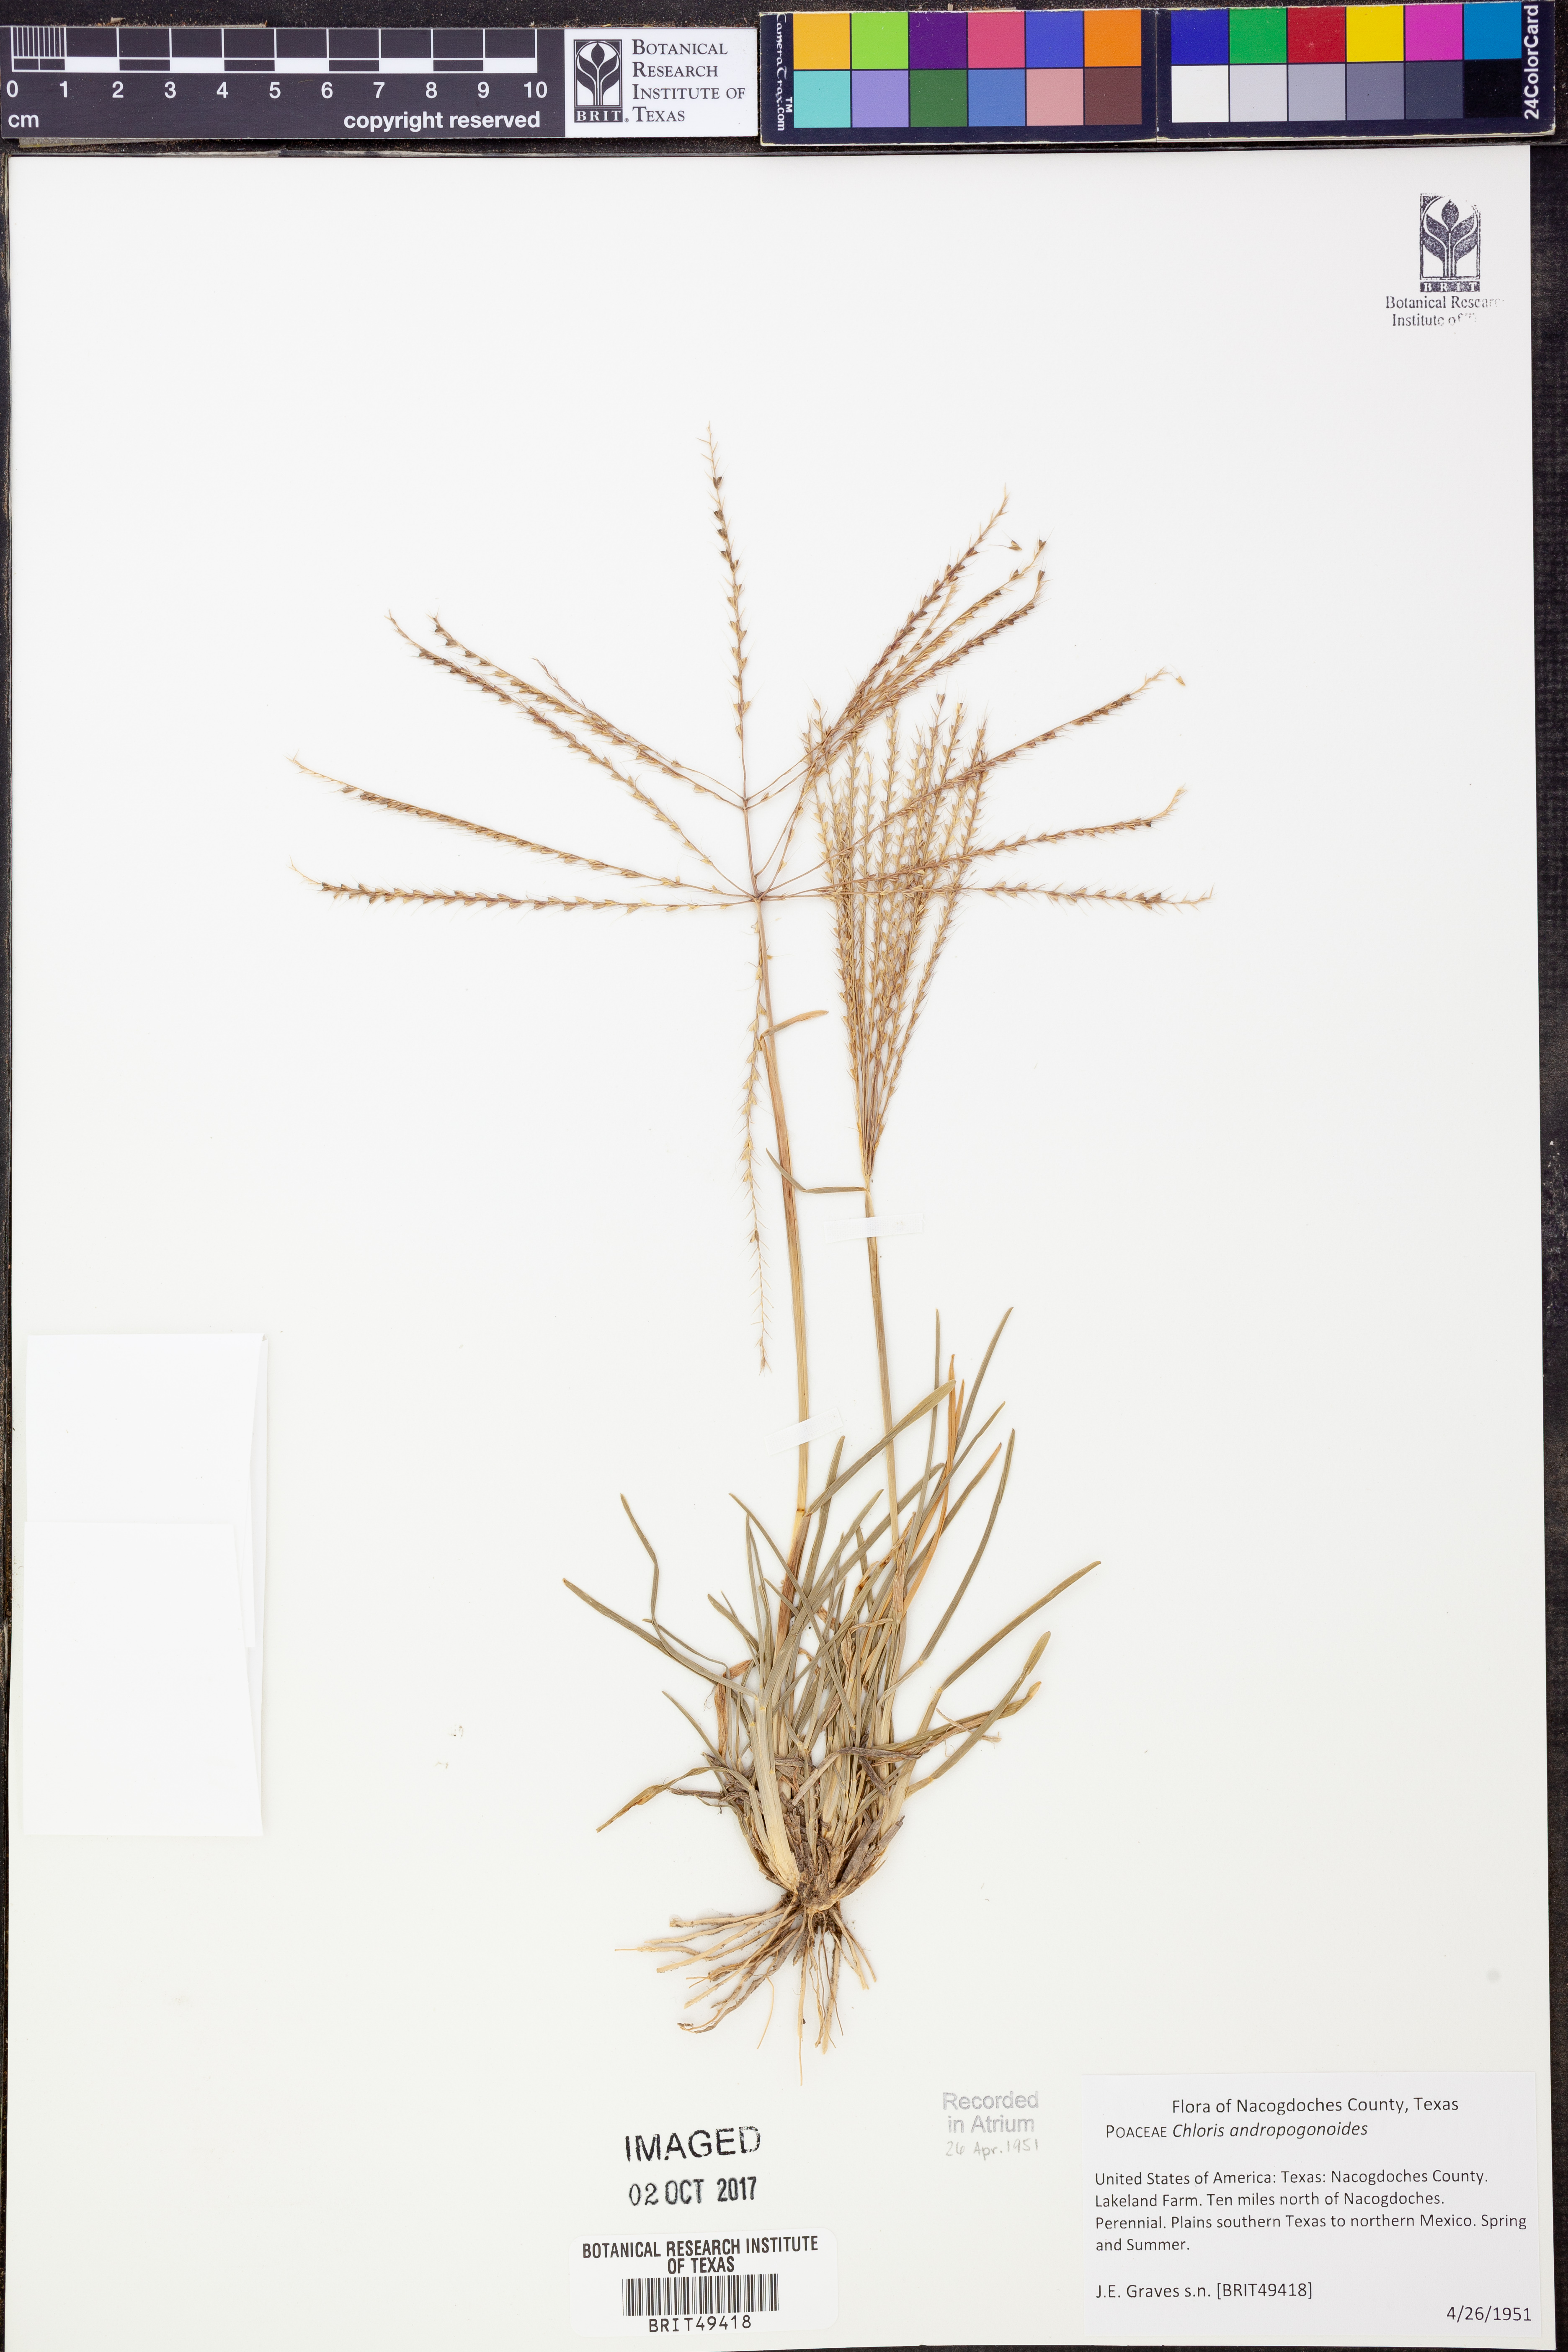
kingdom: Plantae
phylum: Tracheophyta
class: Liliopsida
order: Poales
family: Poaceae
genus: Chloris
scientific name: Chloris andropogonoides
